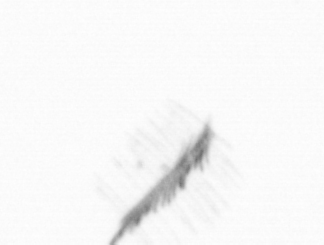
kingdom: Chromista
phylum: Ochrophyta
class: Bacillariophyceae
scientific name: Bacillariophyceae
